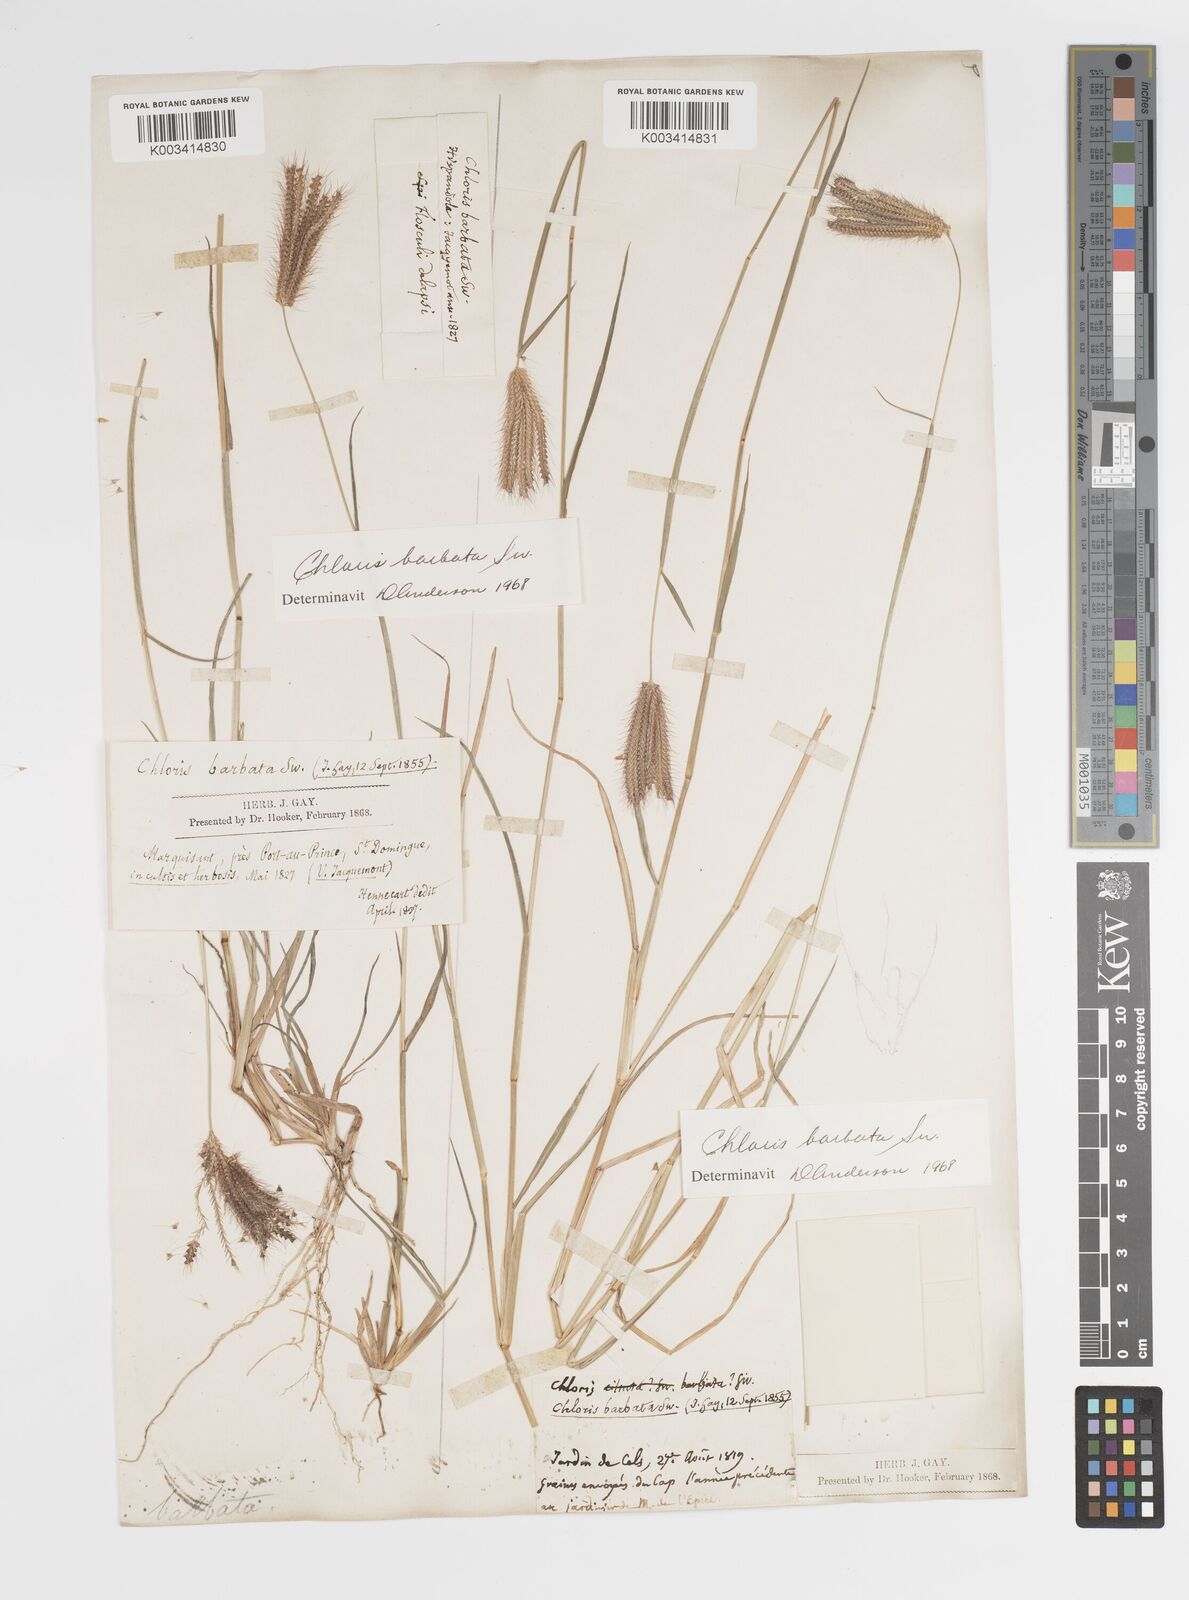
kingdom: Plantae
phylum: Tracheophyta
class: Liliopsida
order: Poales
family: Poaceae
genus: Chloris
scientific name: Chloris barbata
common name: Swollen fingergrass
